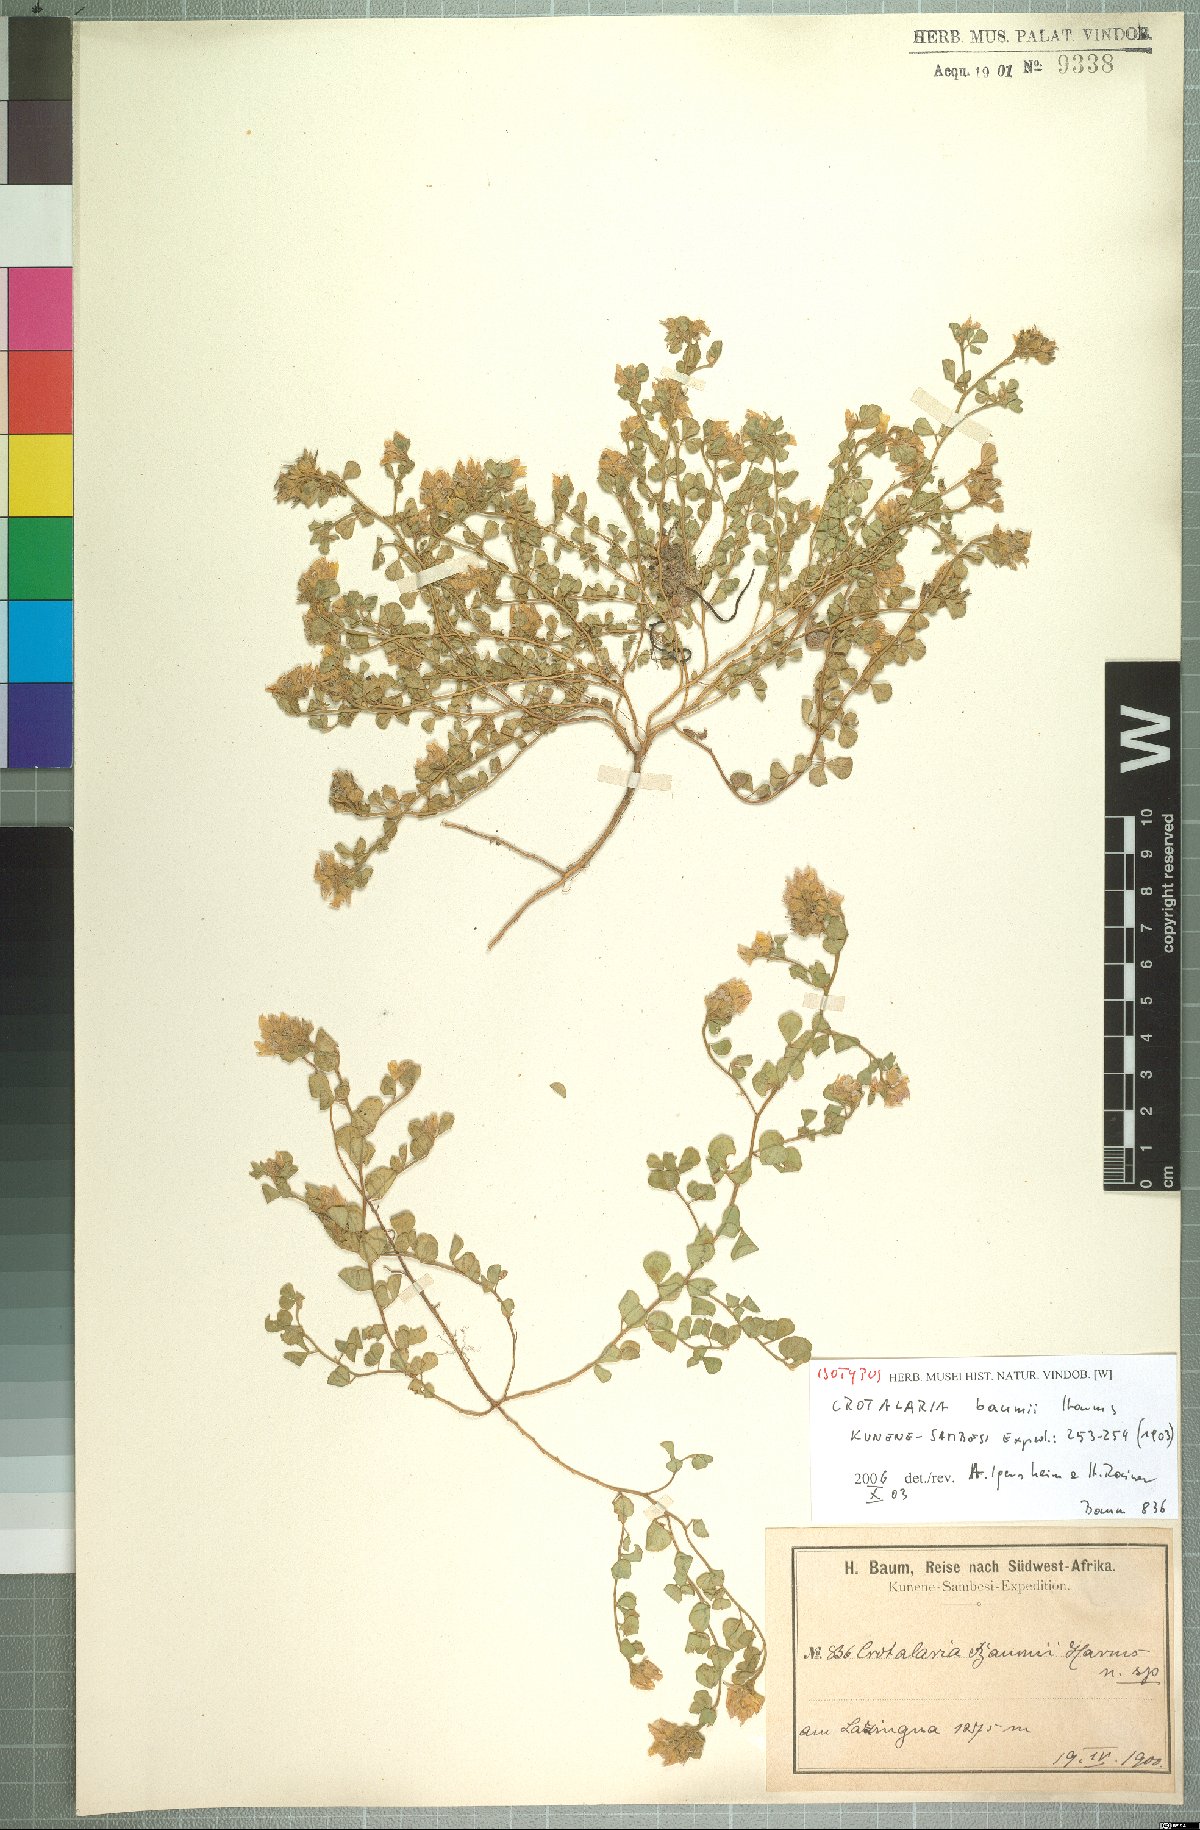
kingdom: Plantae
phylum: Tracheophyta
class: Magnoliopsida
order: Fabales
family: Fabaceae
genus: Crotalaria
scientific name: Crotalaria baumii
